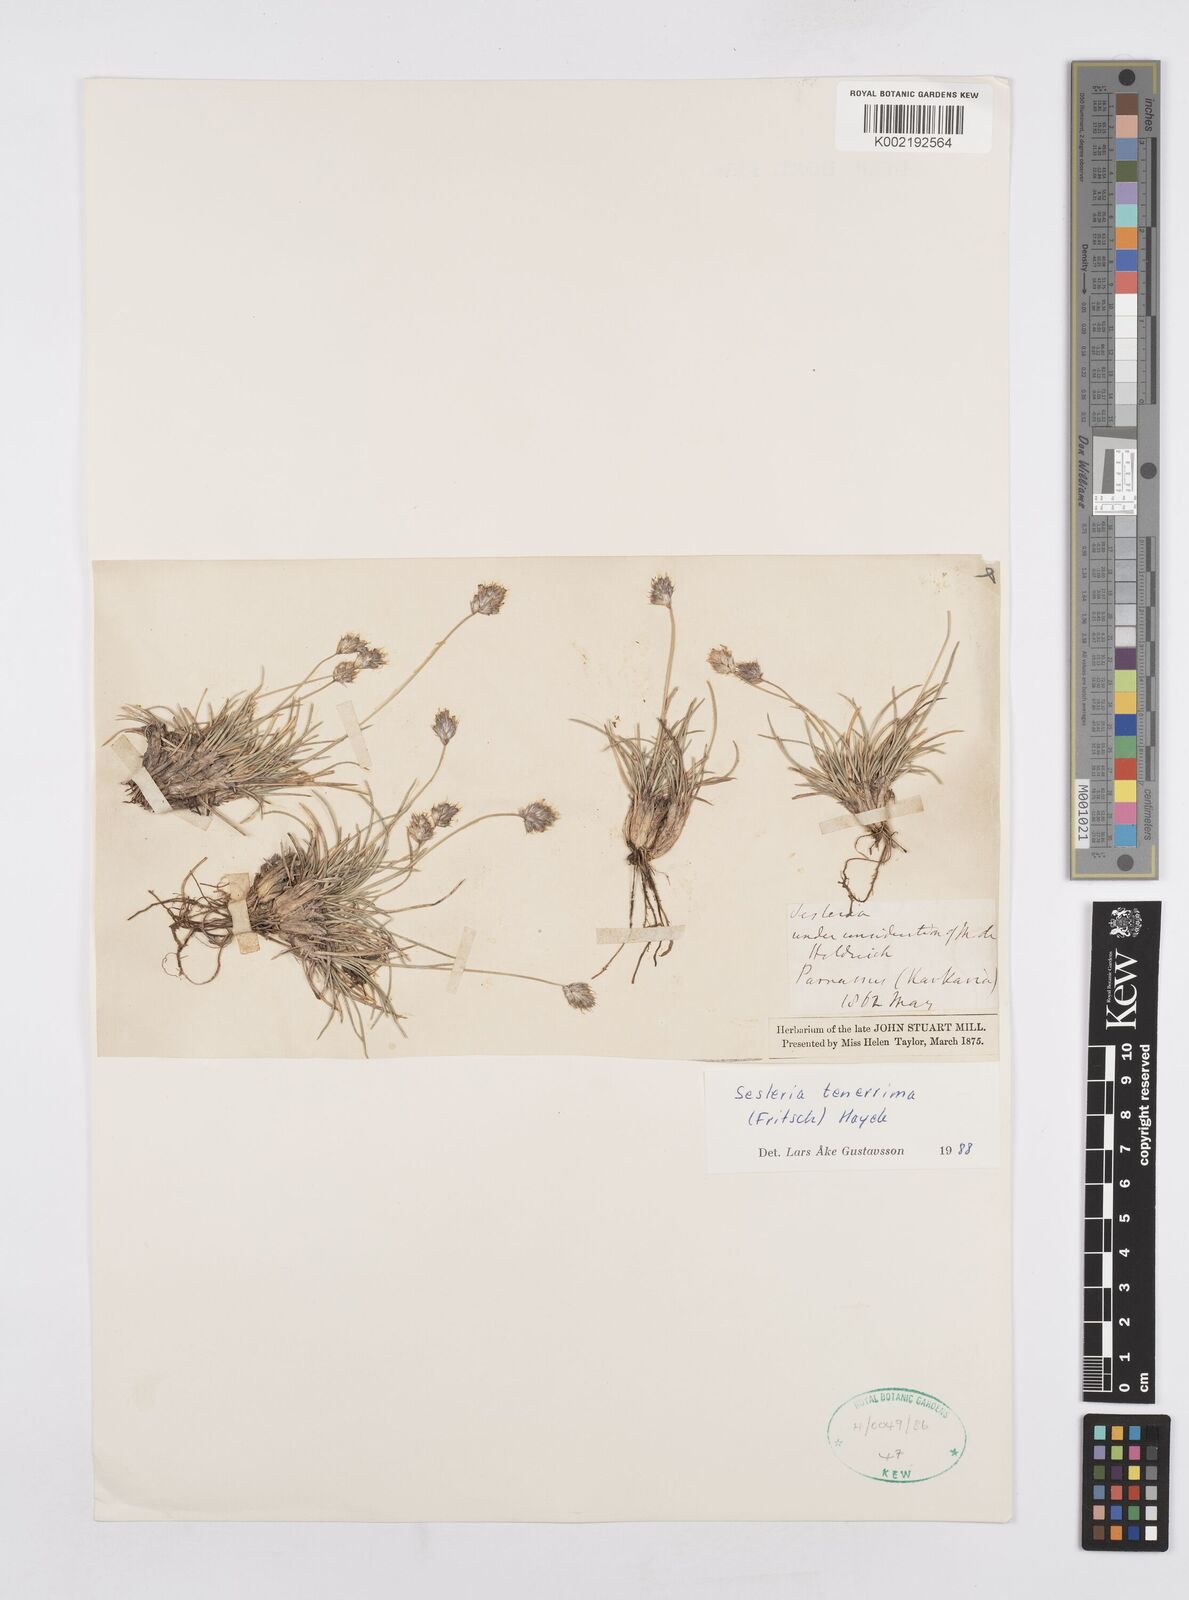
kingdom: Plantae
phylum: Tracheophyta
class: Liliopsida
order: Poales
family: Poaceae
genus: Sesleria
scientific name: Sesleria tenerrima
